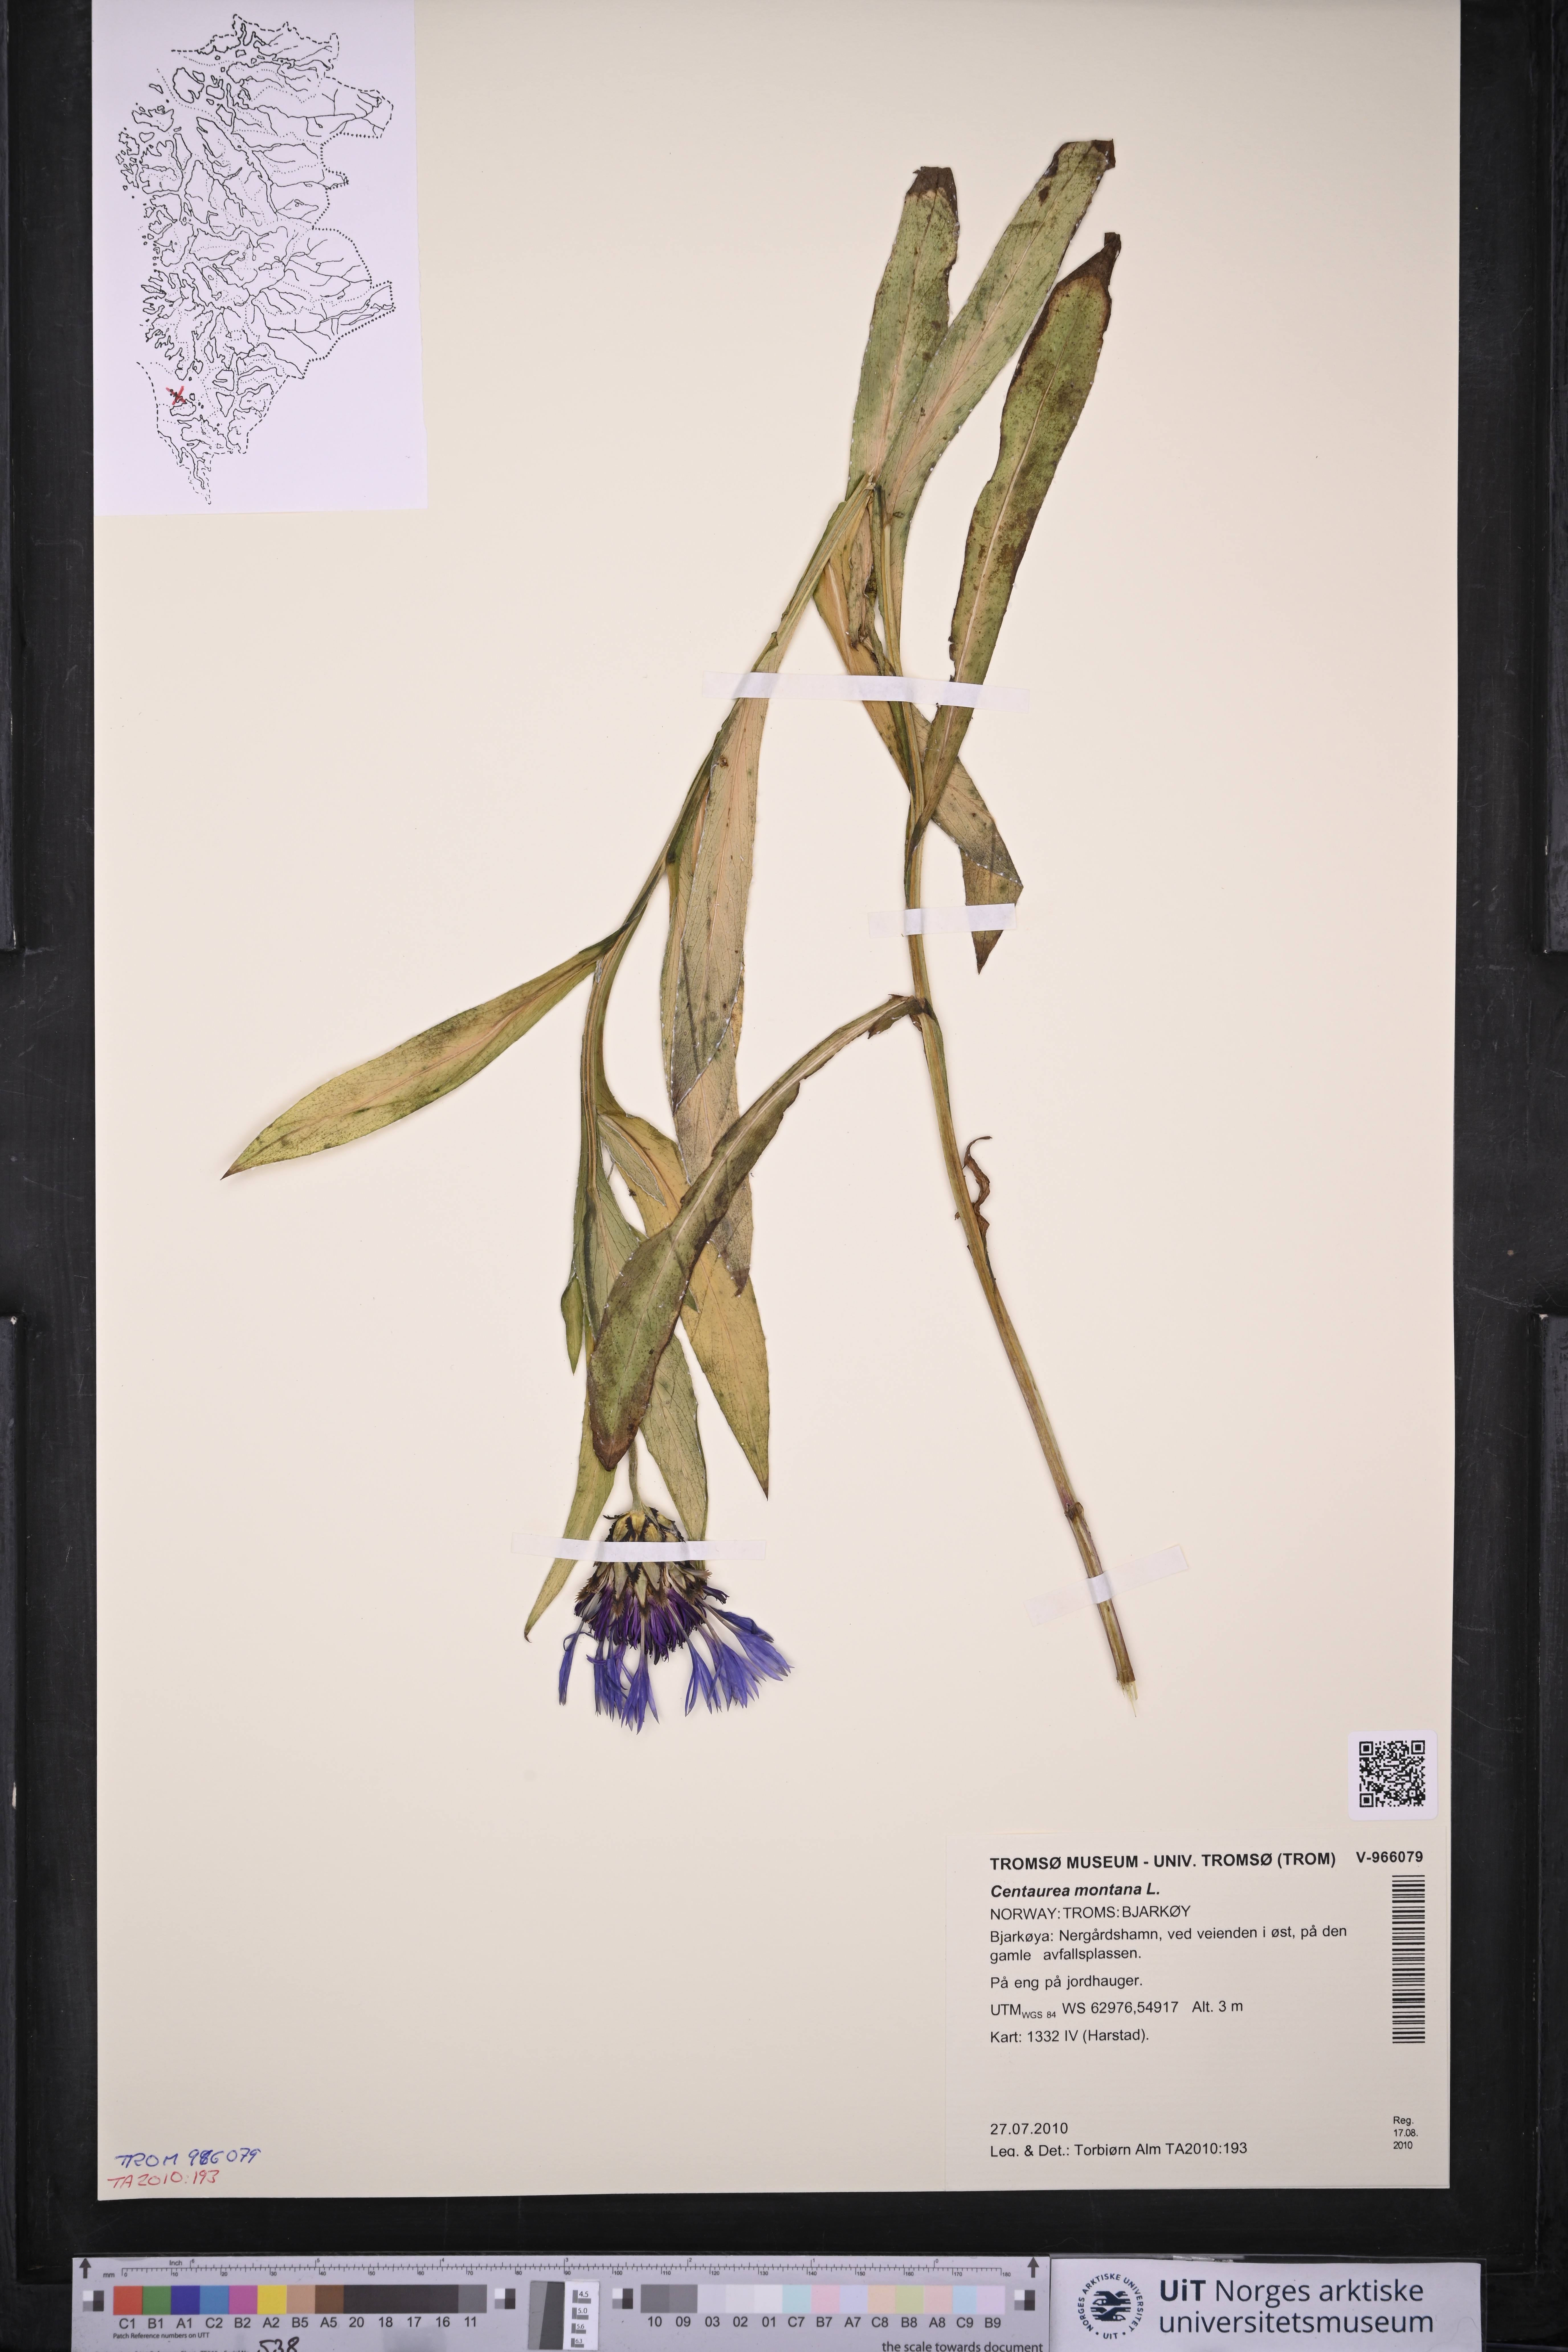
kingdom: Plantae
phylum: Tracheophyta
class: Magnoliopsida
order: Asterales
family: Asteraceae
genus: Centaurea
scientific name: Centaurea montana
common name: Perennial cornflower
